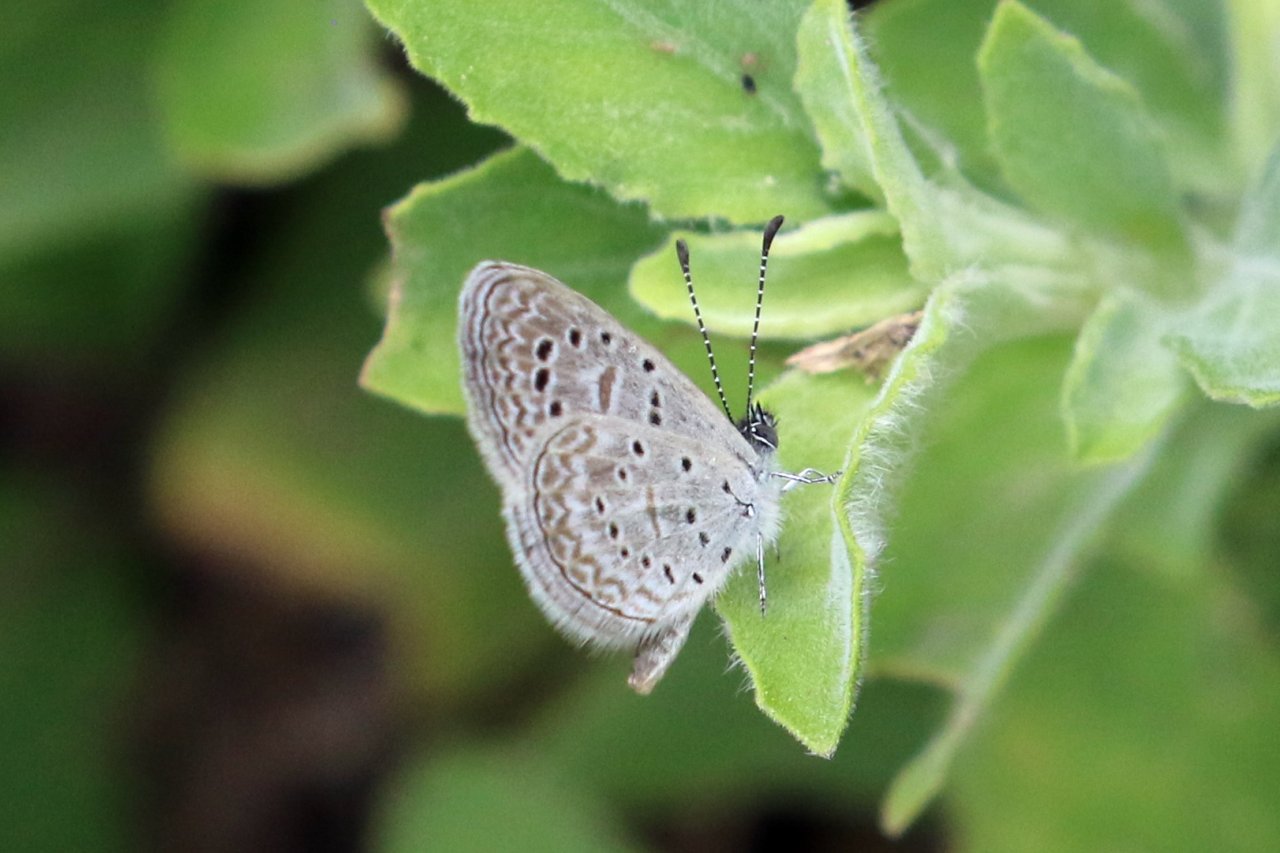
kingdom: Animalia
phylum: Arthropoda
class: Insecta
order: Lepidoptera
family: Lycaenidae
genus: Lycaena
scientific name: Lycaena cyna
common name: Cyna Blue
